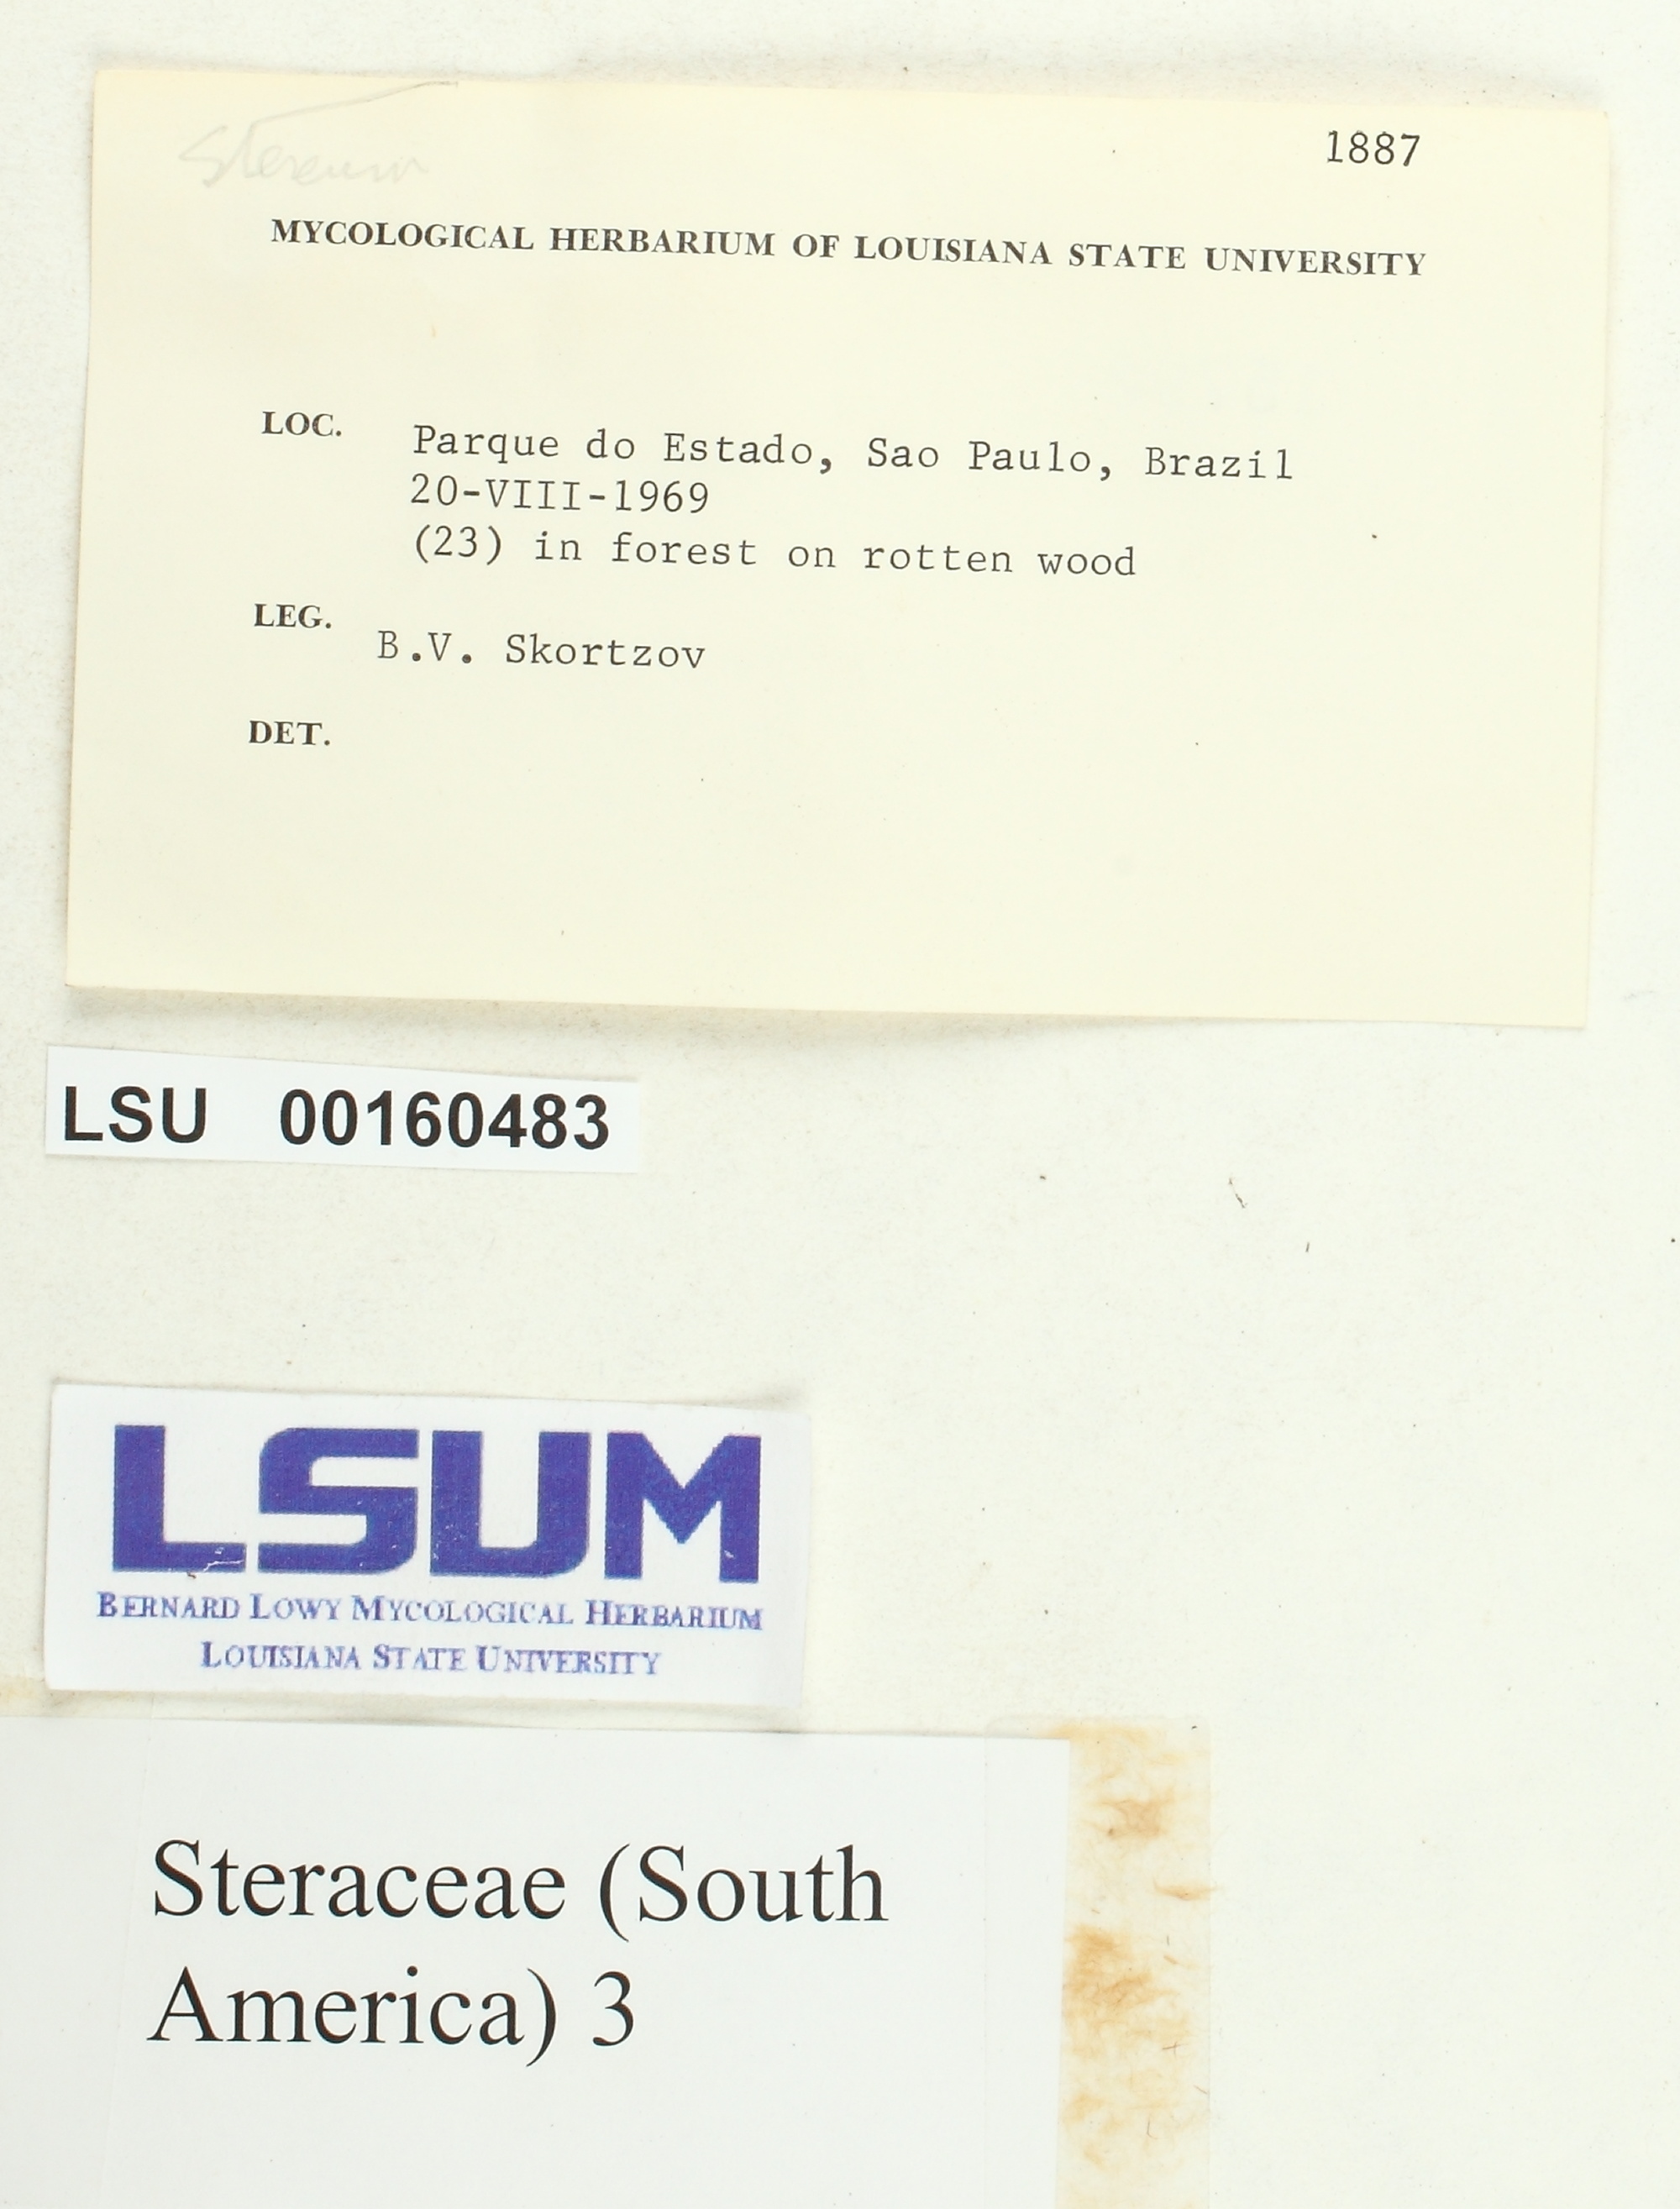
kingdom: Fungi
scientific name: Fungi
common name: Fungi
